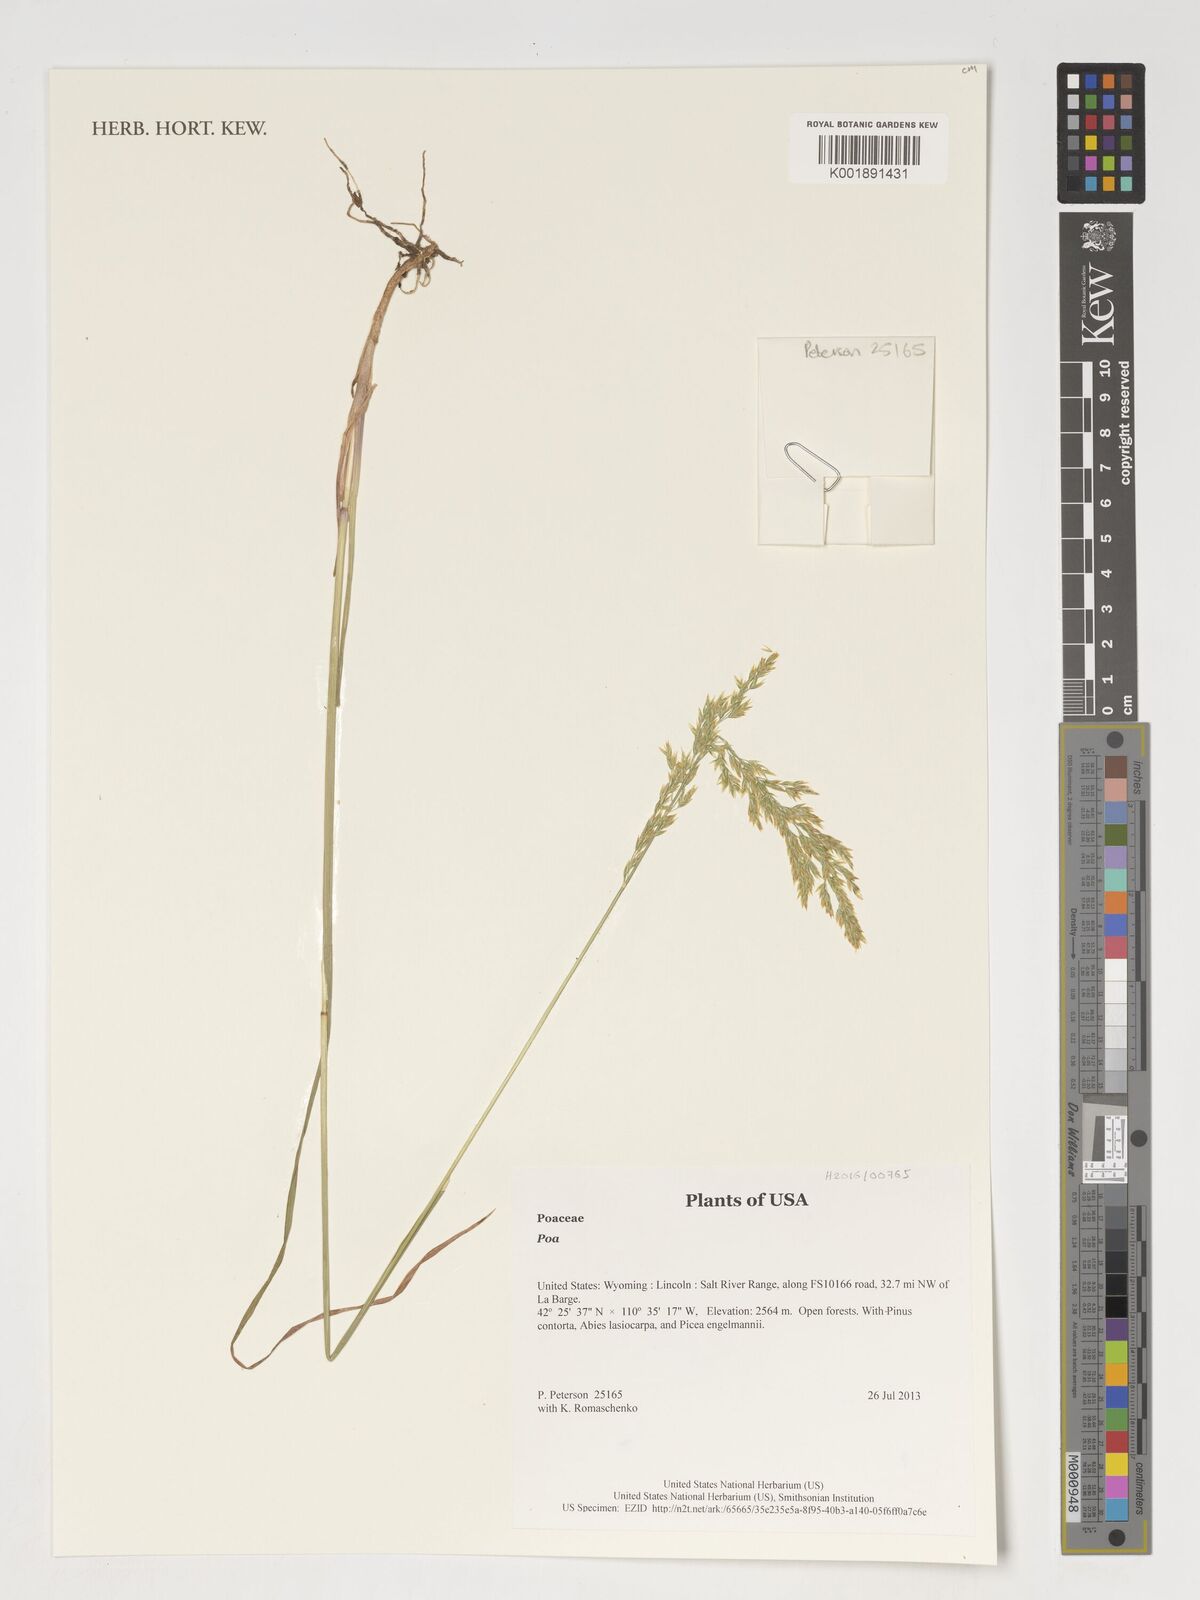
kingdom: Plantae
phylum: Tracheophyta
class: Liliopsida
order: Poales
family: Poaceae
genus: Poa
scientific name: Poa
